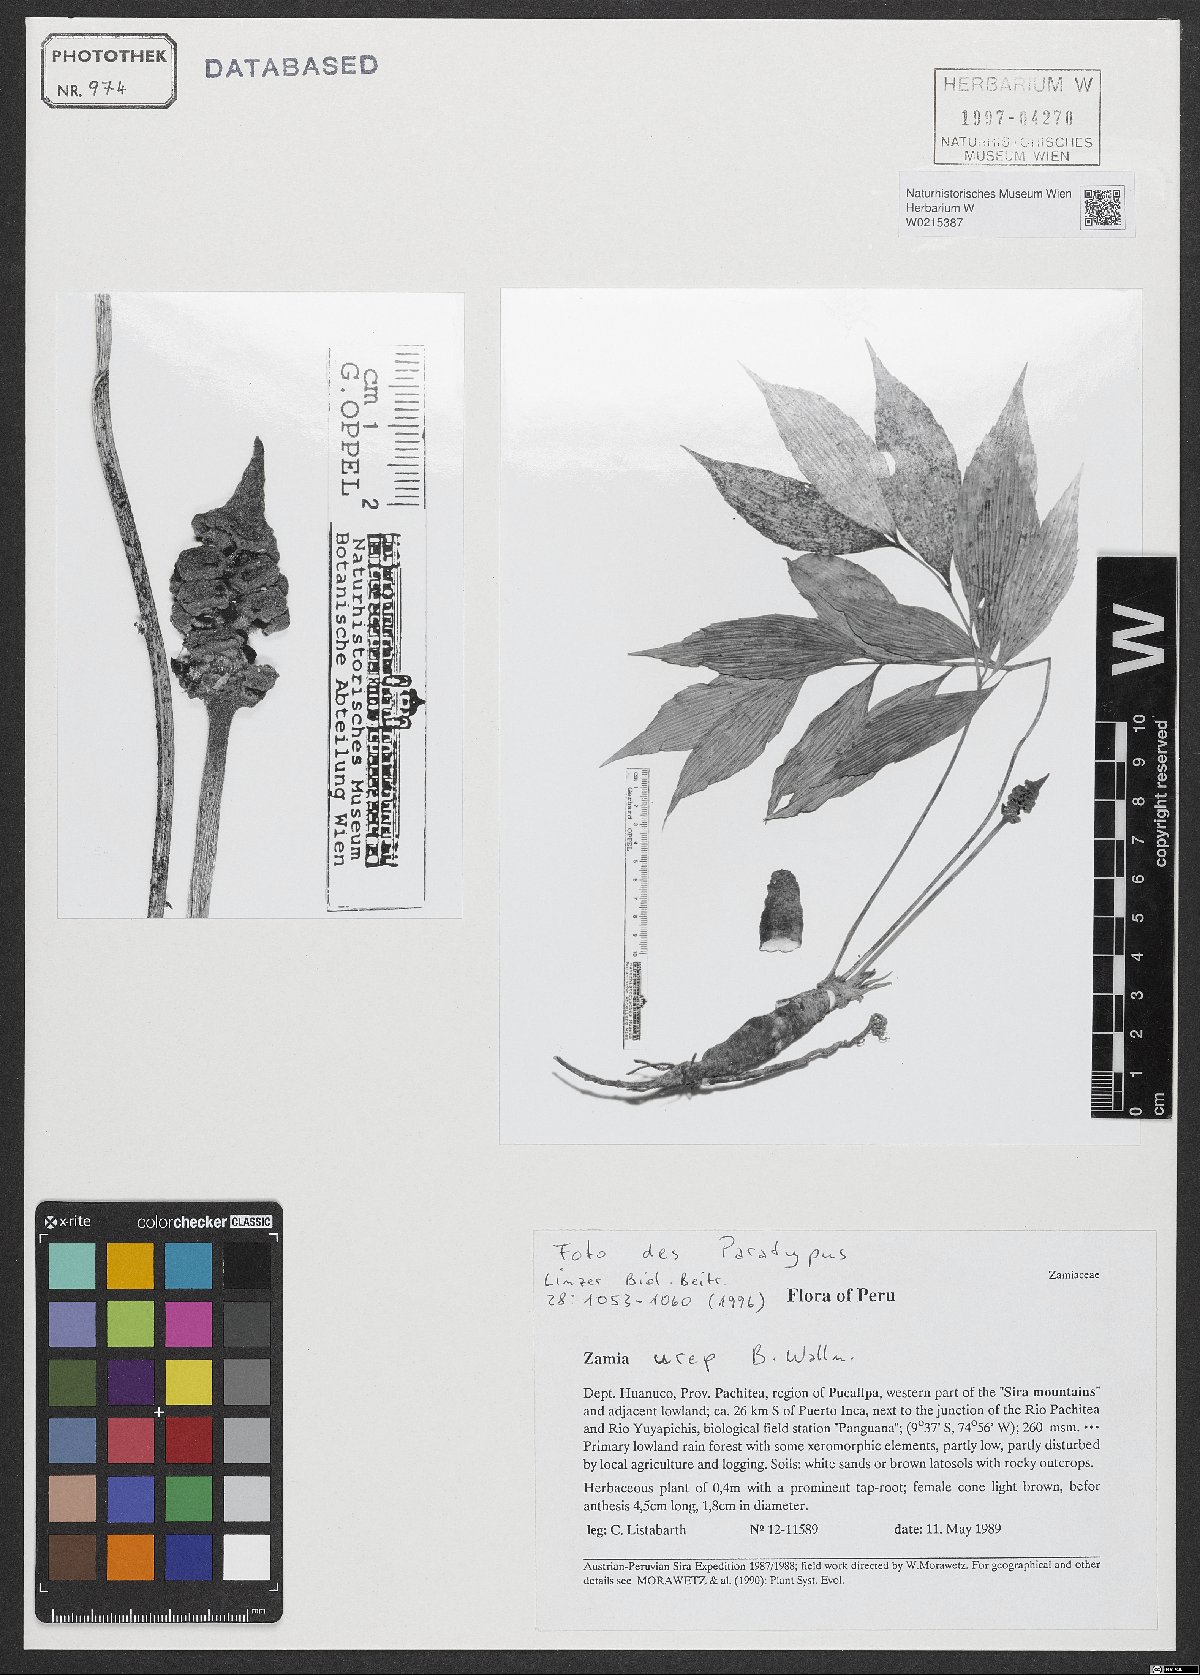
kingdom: Plantae
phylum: Tracheophyta
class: Cycadopsida
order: Cycadales
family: Zamiaceae
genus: Zamia
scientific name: Zamia urep
